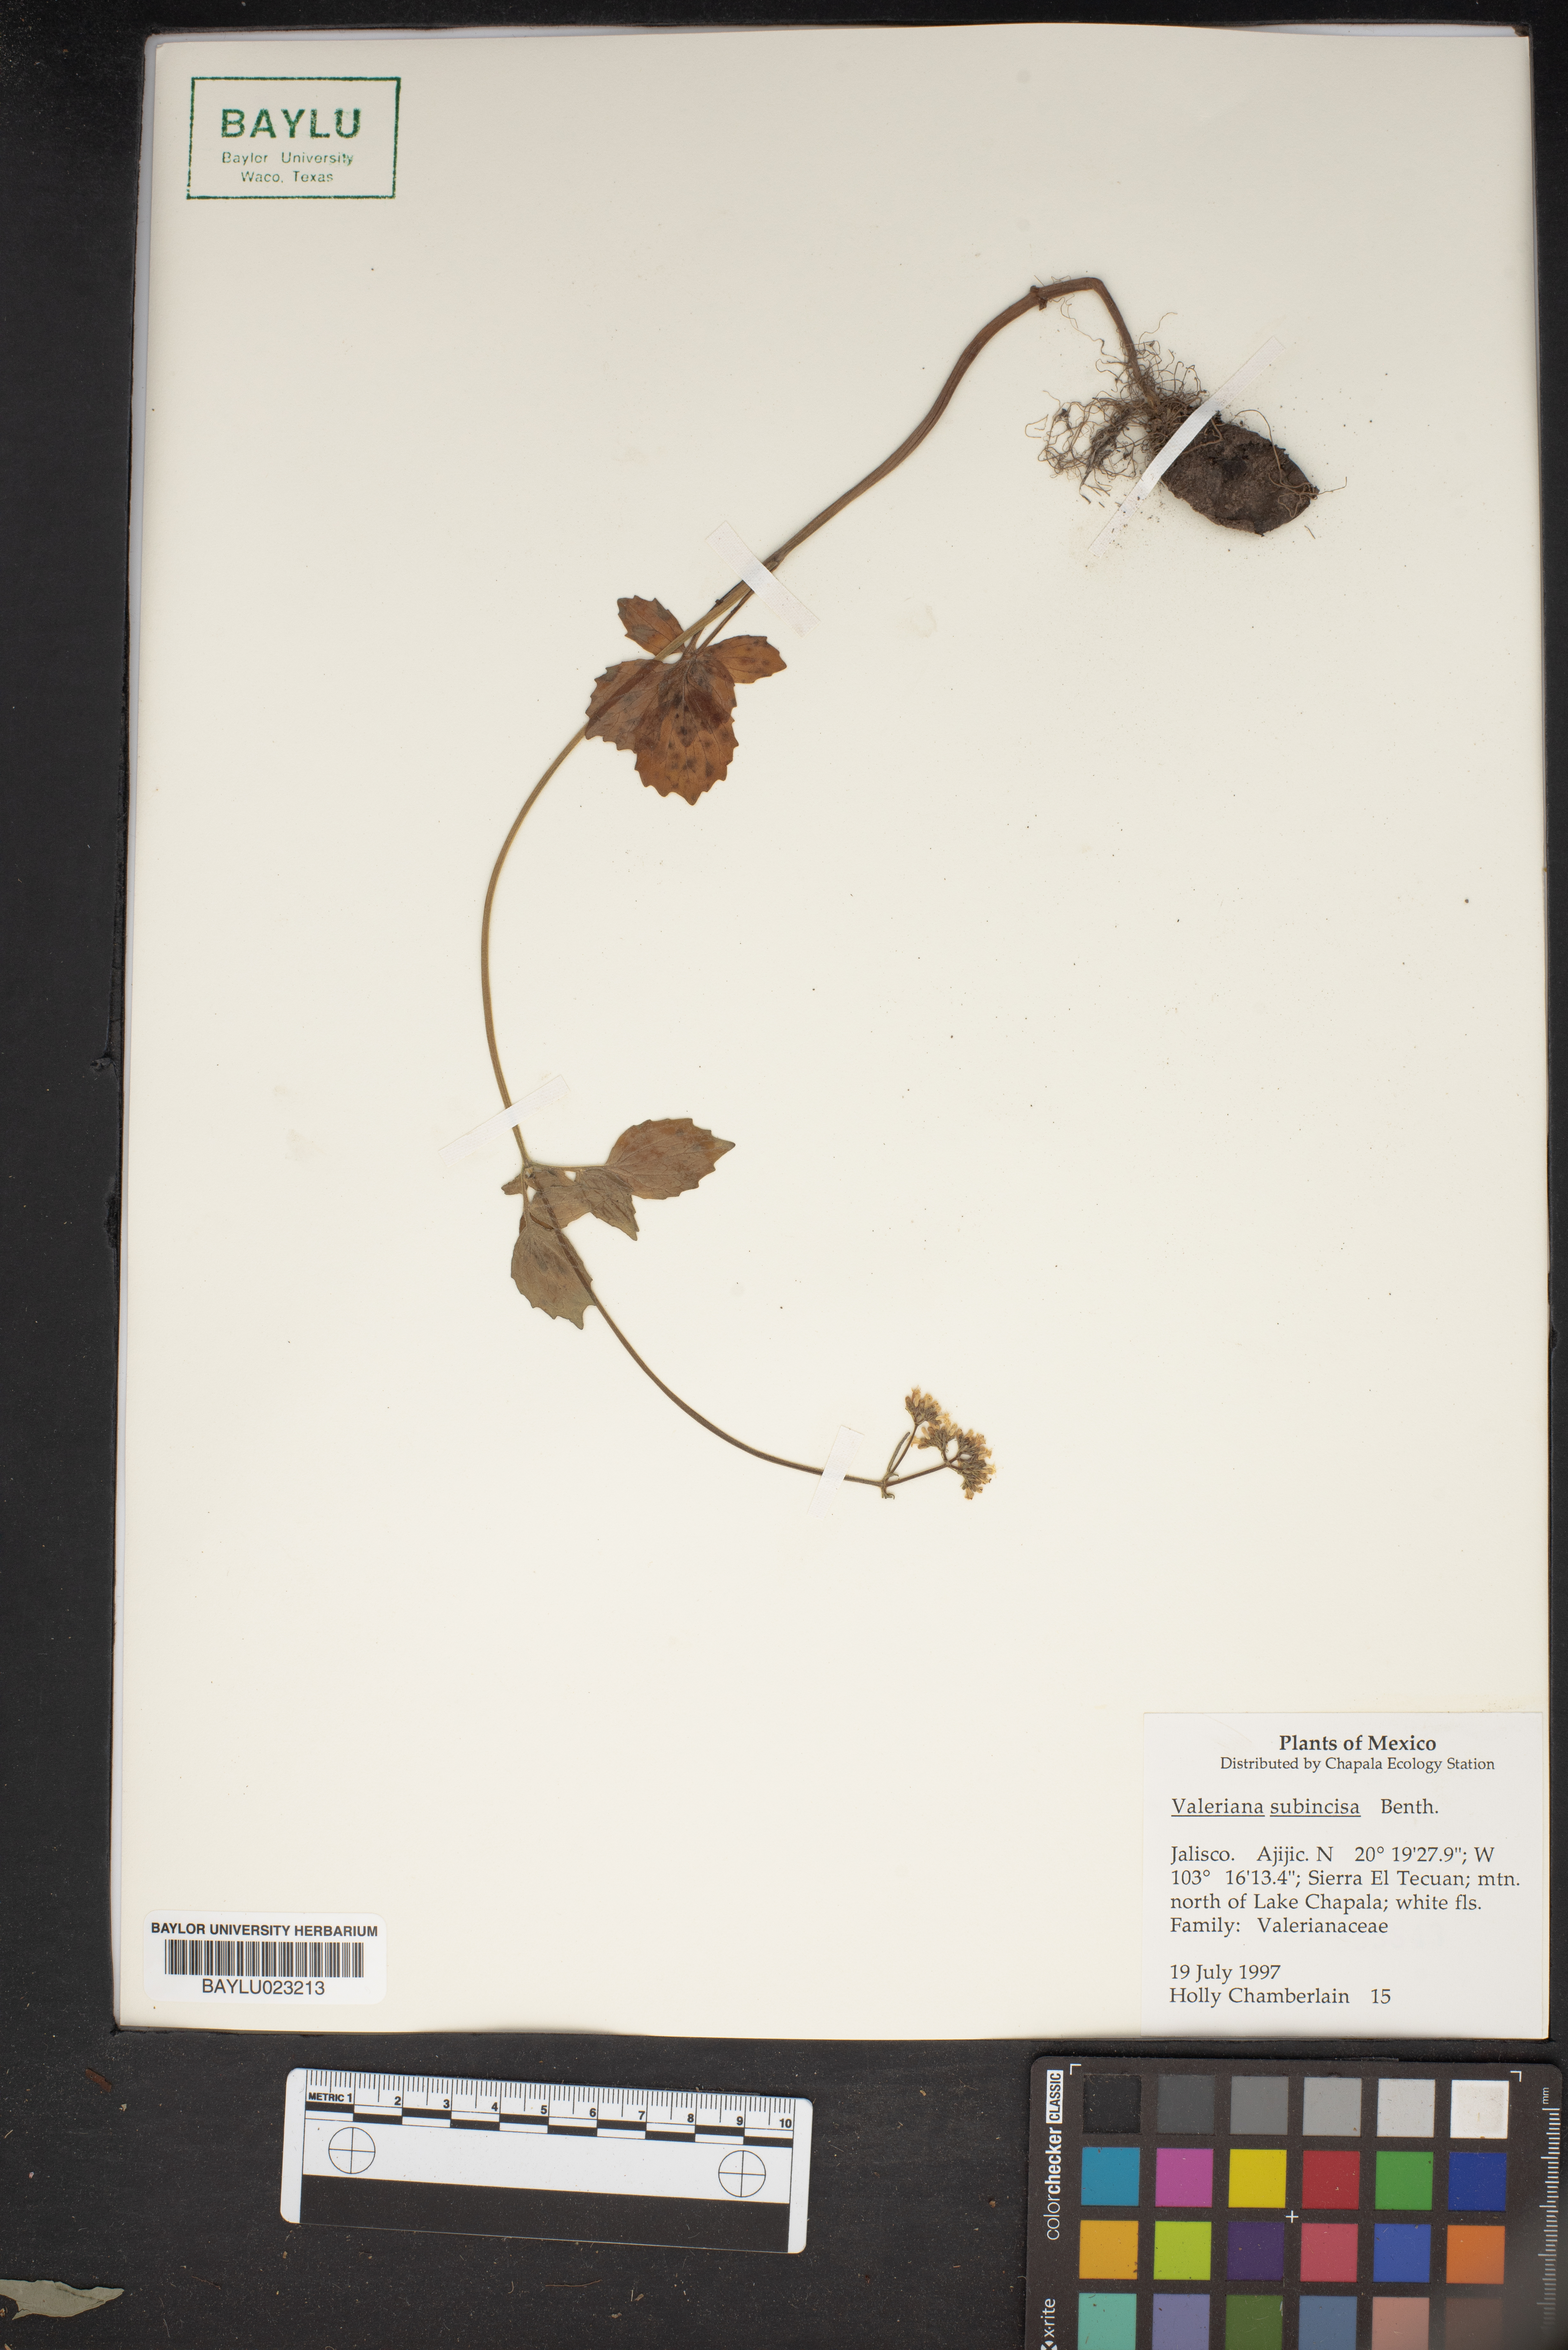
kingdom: Plantae
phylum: Tracheophyta
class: Magnoliopsida
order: Dipsacales
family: Caprifoliaceae
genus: Valeriana
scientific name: Valeriana subincisa
